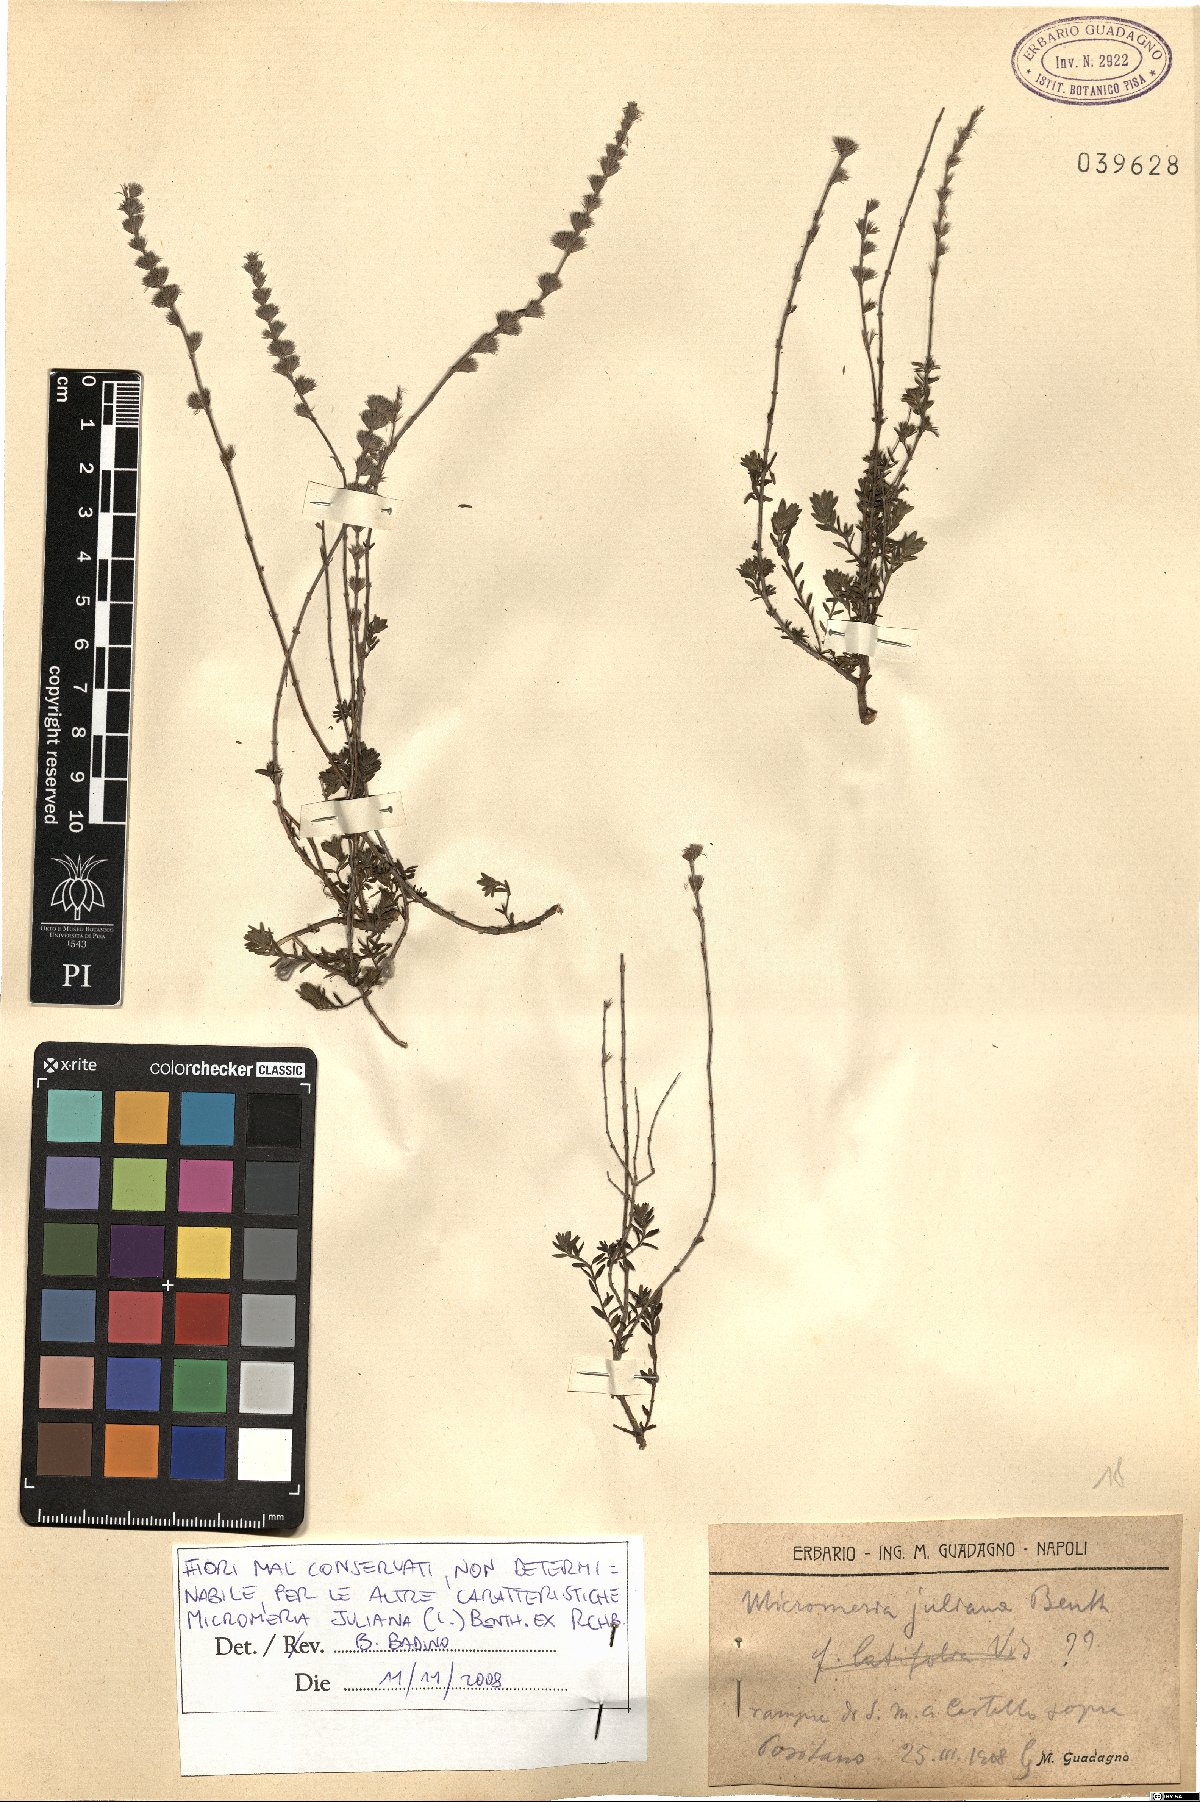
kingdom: Plantae
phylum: Tracheophyta
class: Magnoliopsida
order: Lamiales
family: Lamiaceae
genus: Micromeria
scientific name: Micromeria juliana
